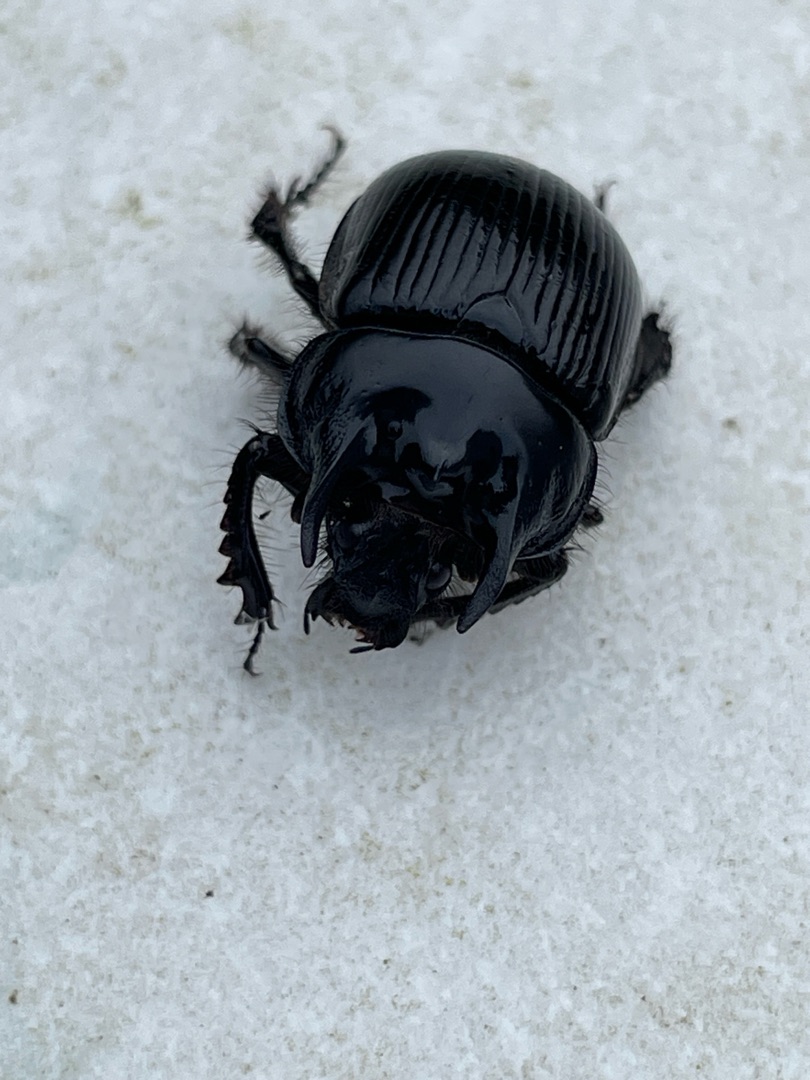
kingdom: Animalia
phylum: Arthropoda
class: Insecta
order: Coleoptera
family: Geotrupidae
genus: Typhaeus
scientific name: Typhaeus typhoeus
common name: Trehornet skarnbasse
